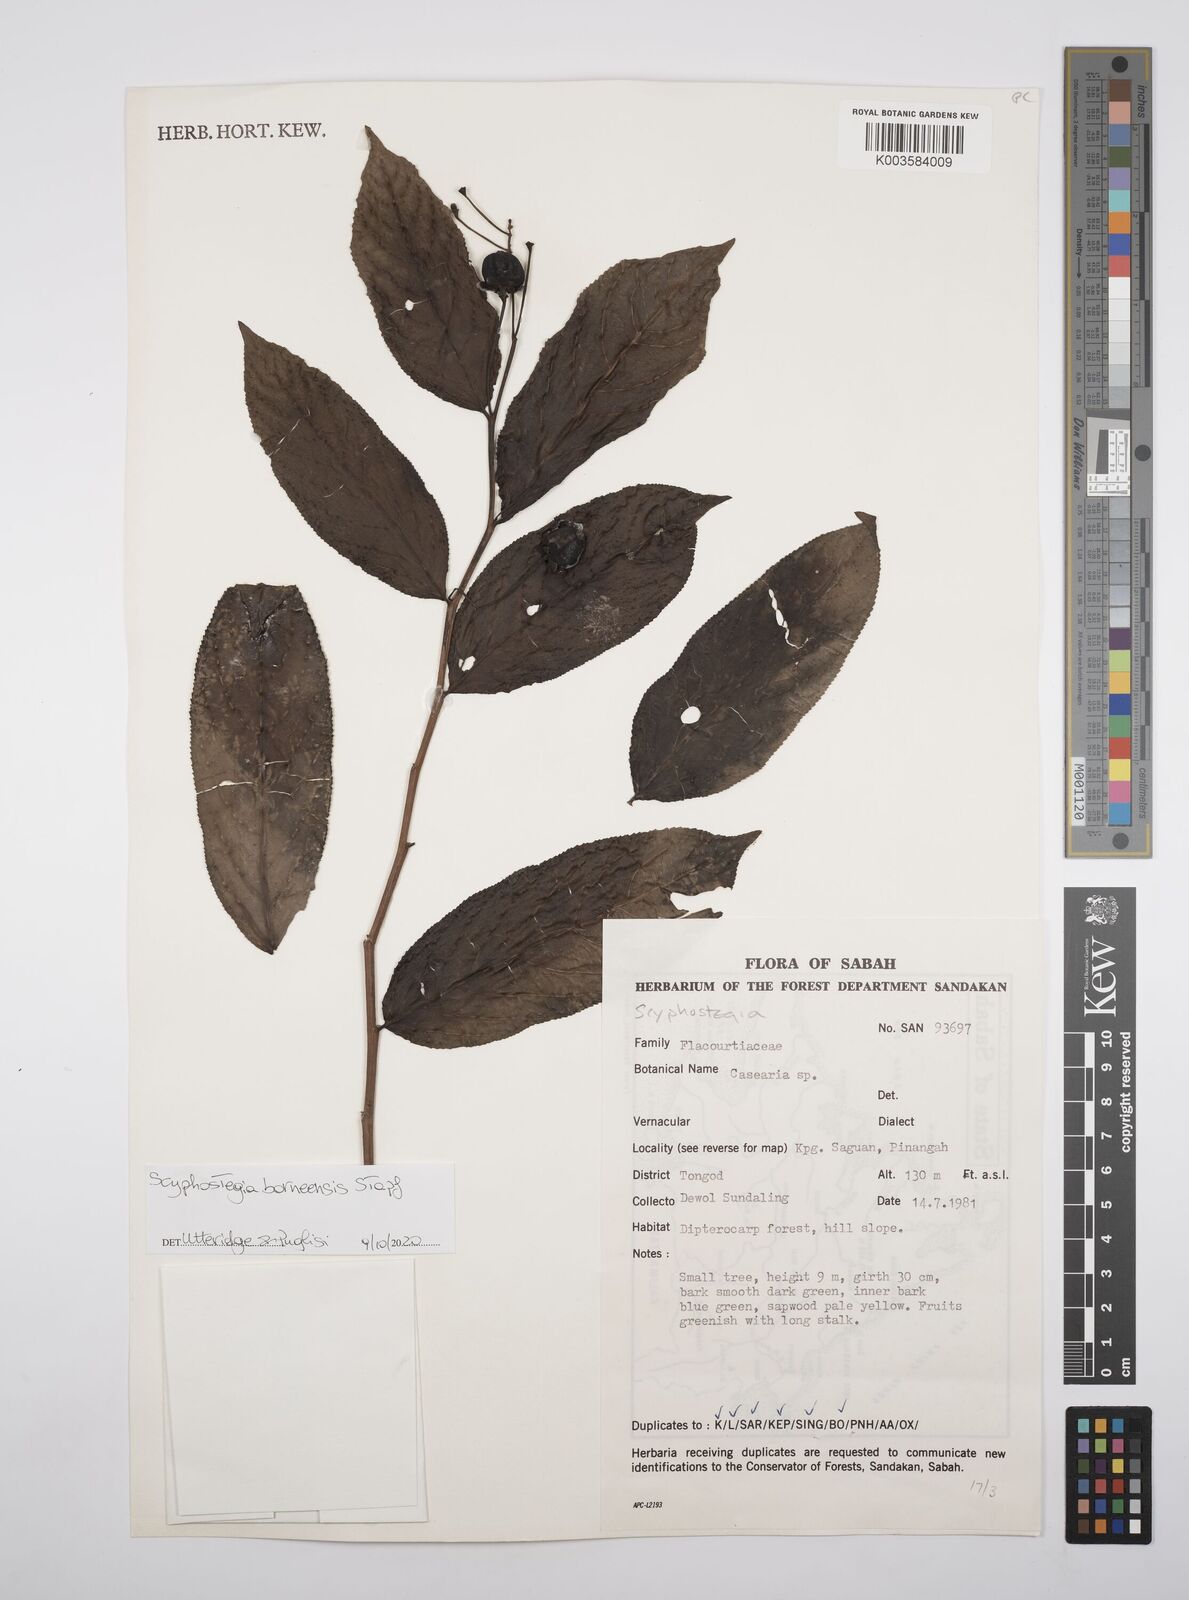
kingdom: Plantae
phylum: Tracheophyta
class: Magnoliopsida
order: Malpighiales
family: Salicaceae
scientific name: Salicaceae
